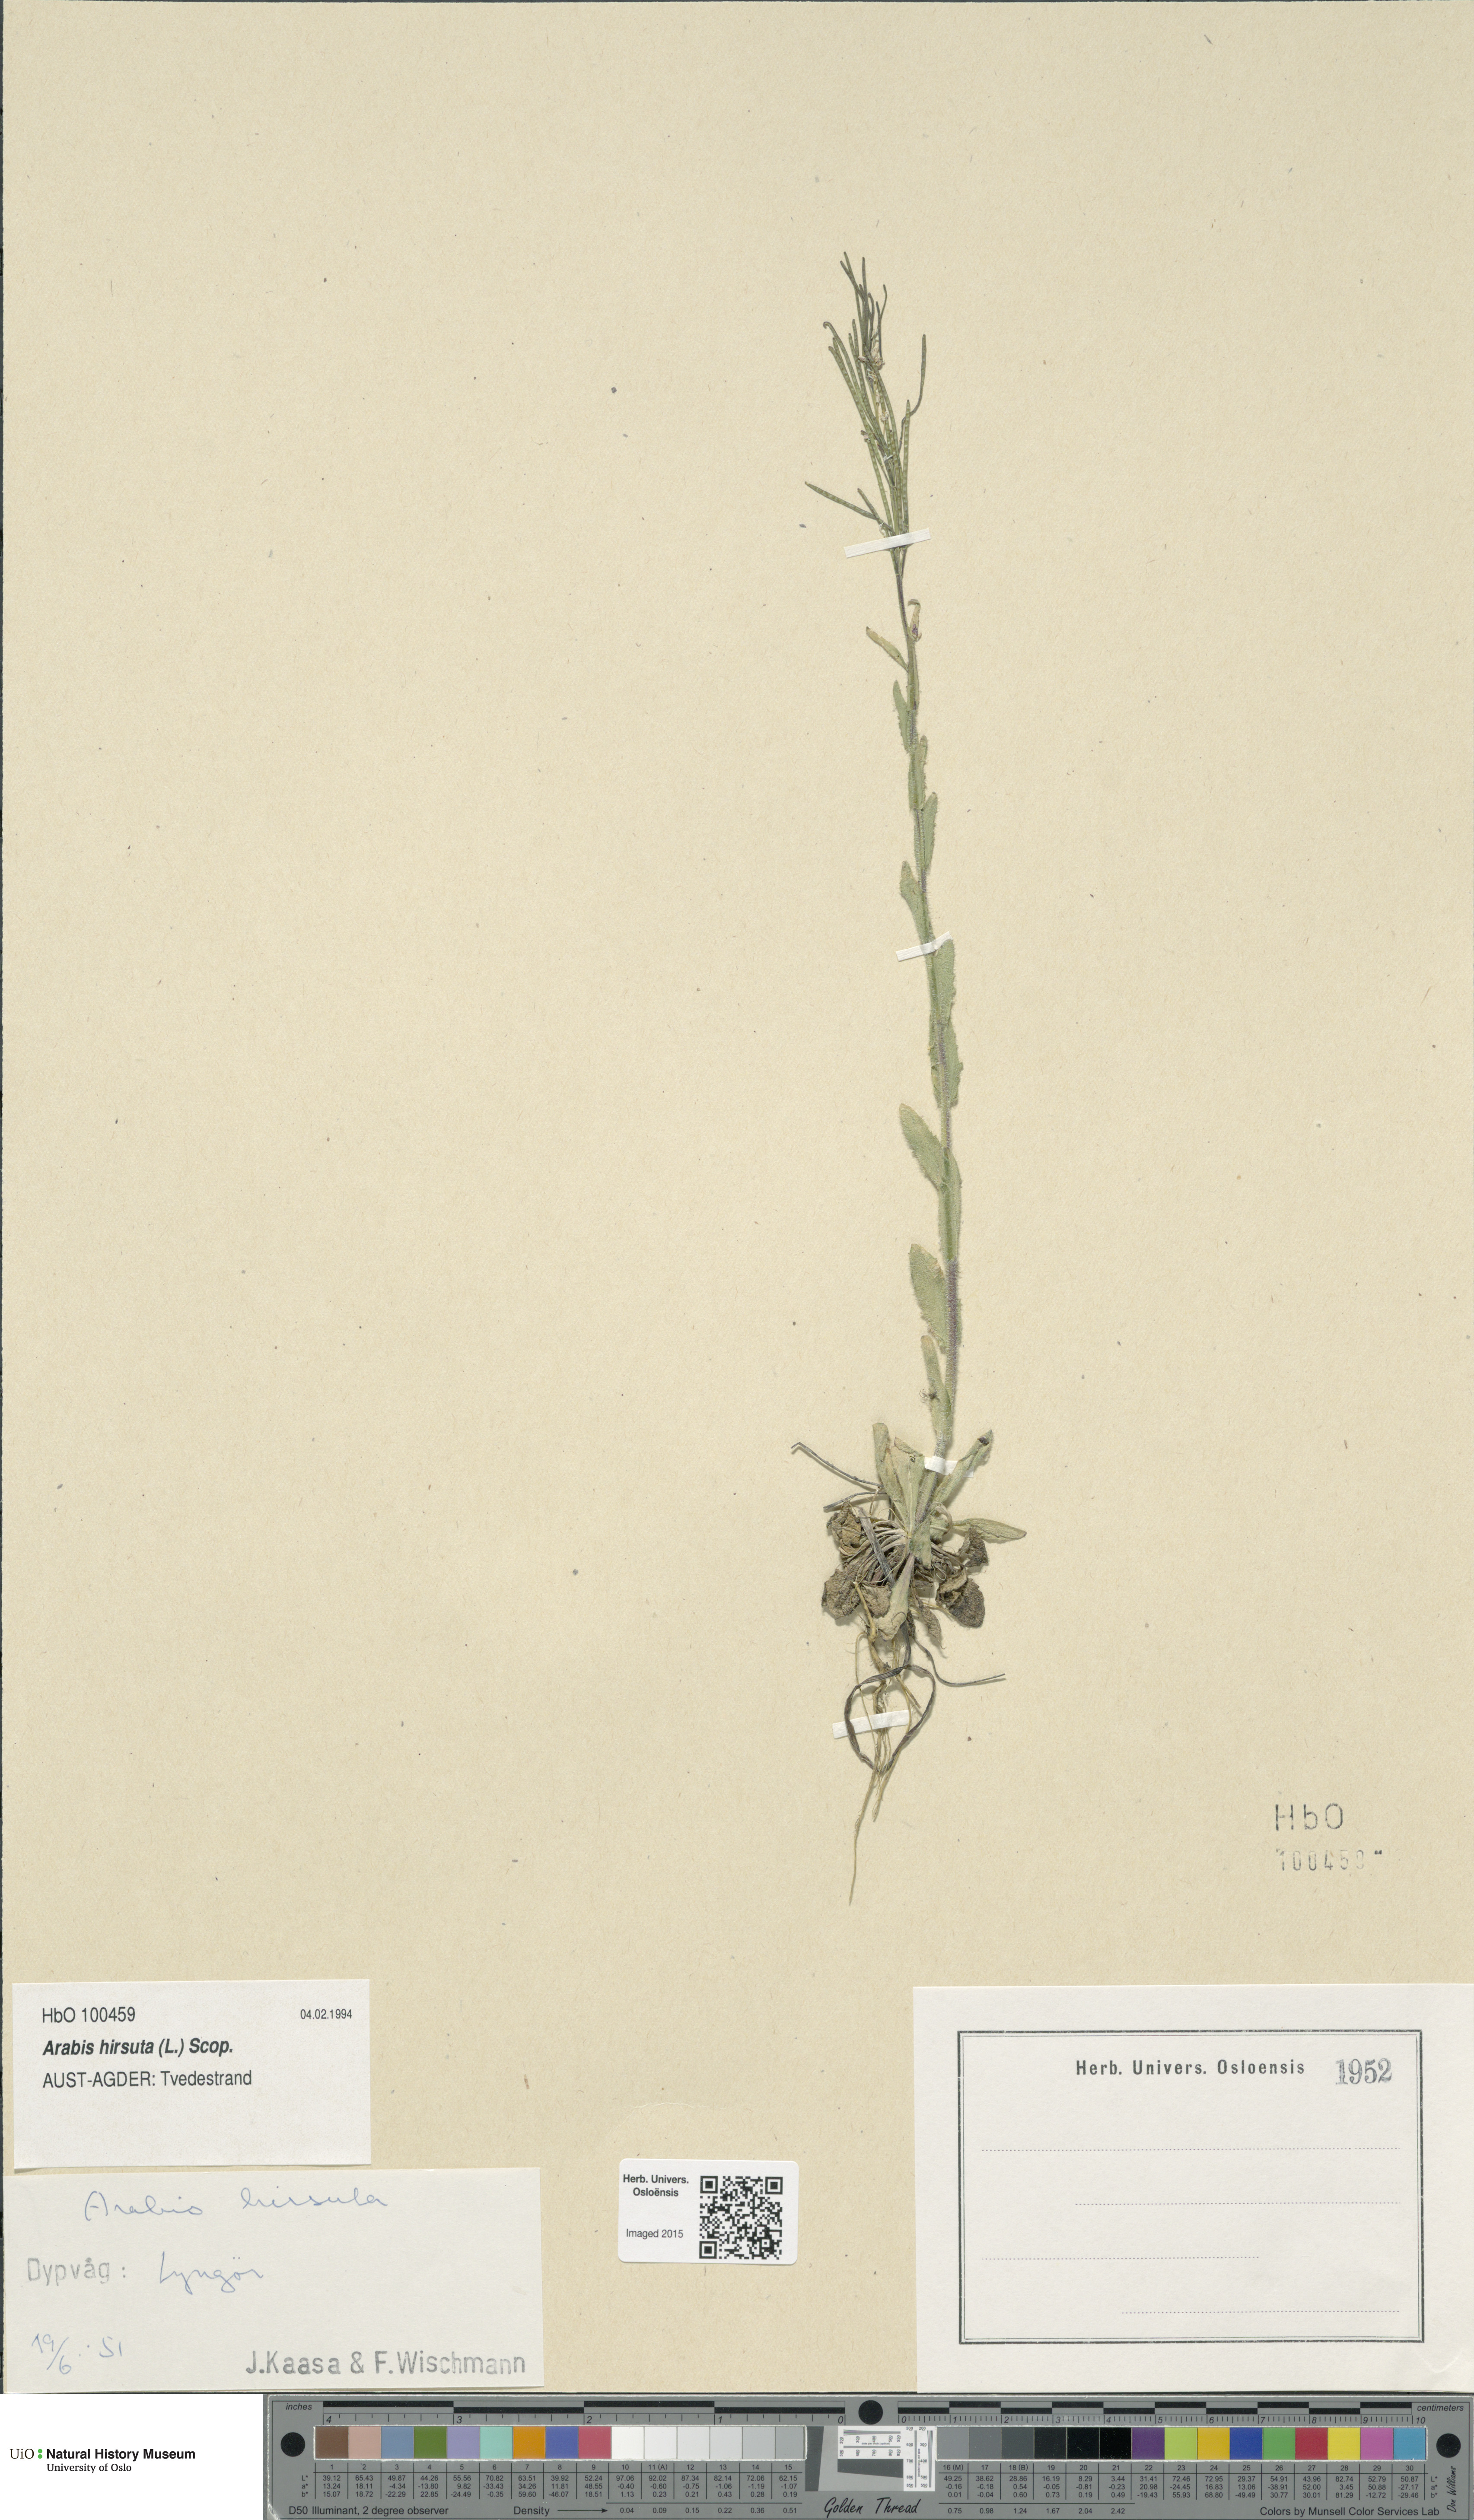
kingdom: Plantae
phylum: Tracheophyta
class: Magnoliopsida
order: Brassicales
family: Brassicaceae
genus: Arabis
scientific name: Arabis hirsuta
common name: Hairy rock-cress
